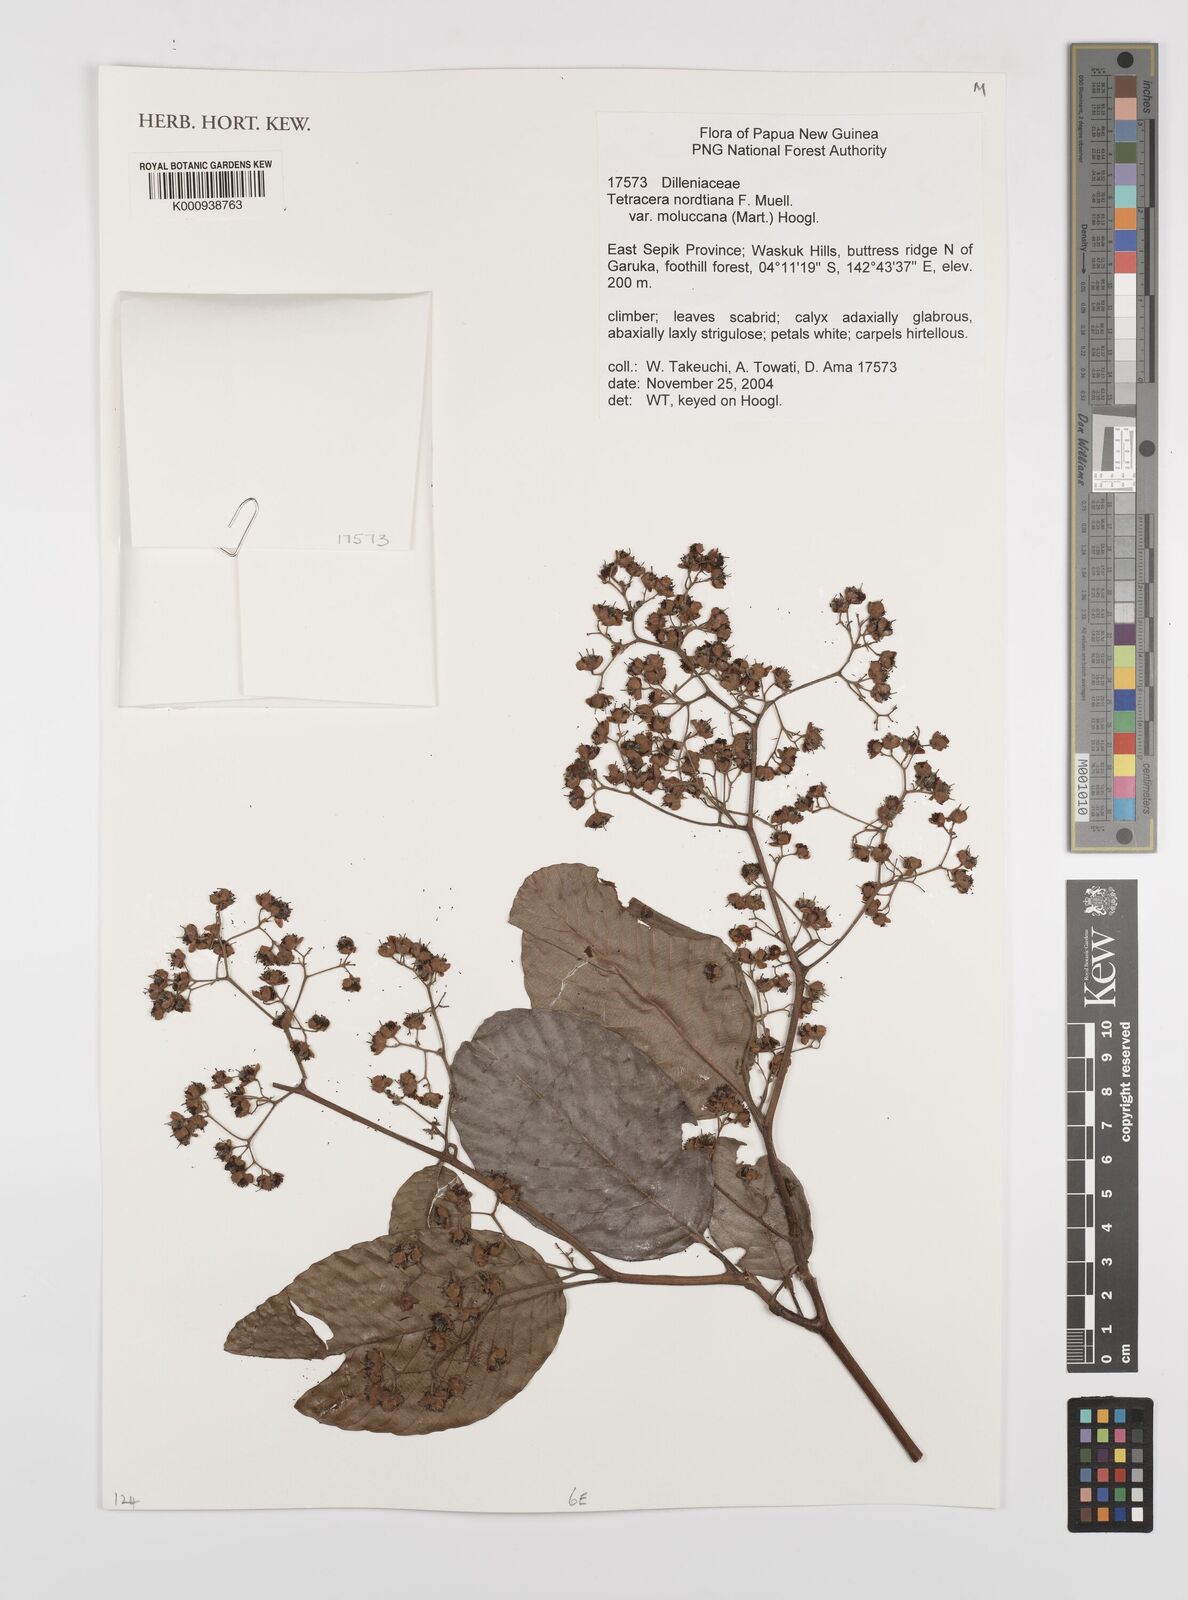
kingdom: Plantae
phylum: Tracheophyta
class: Magnoliopsida
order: Dilleniales
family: Dilleniaceae
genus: Tetracera
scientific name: Tetracera nordtiana
